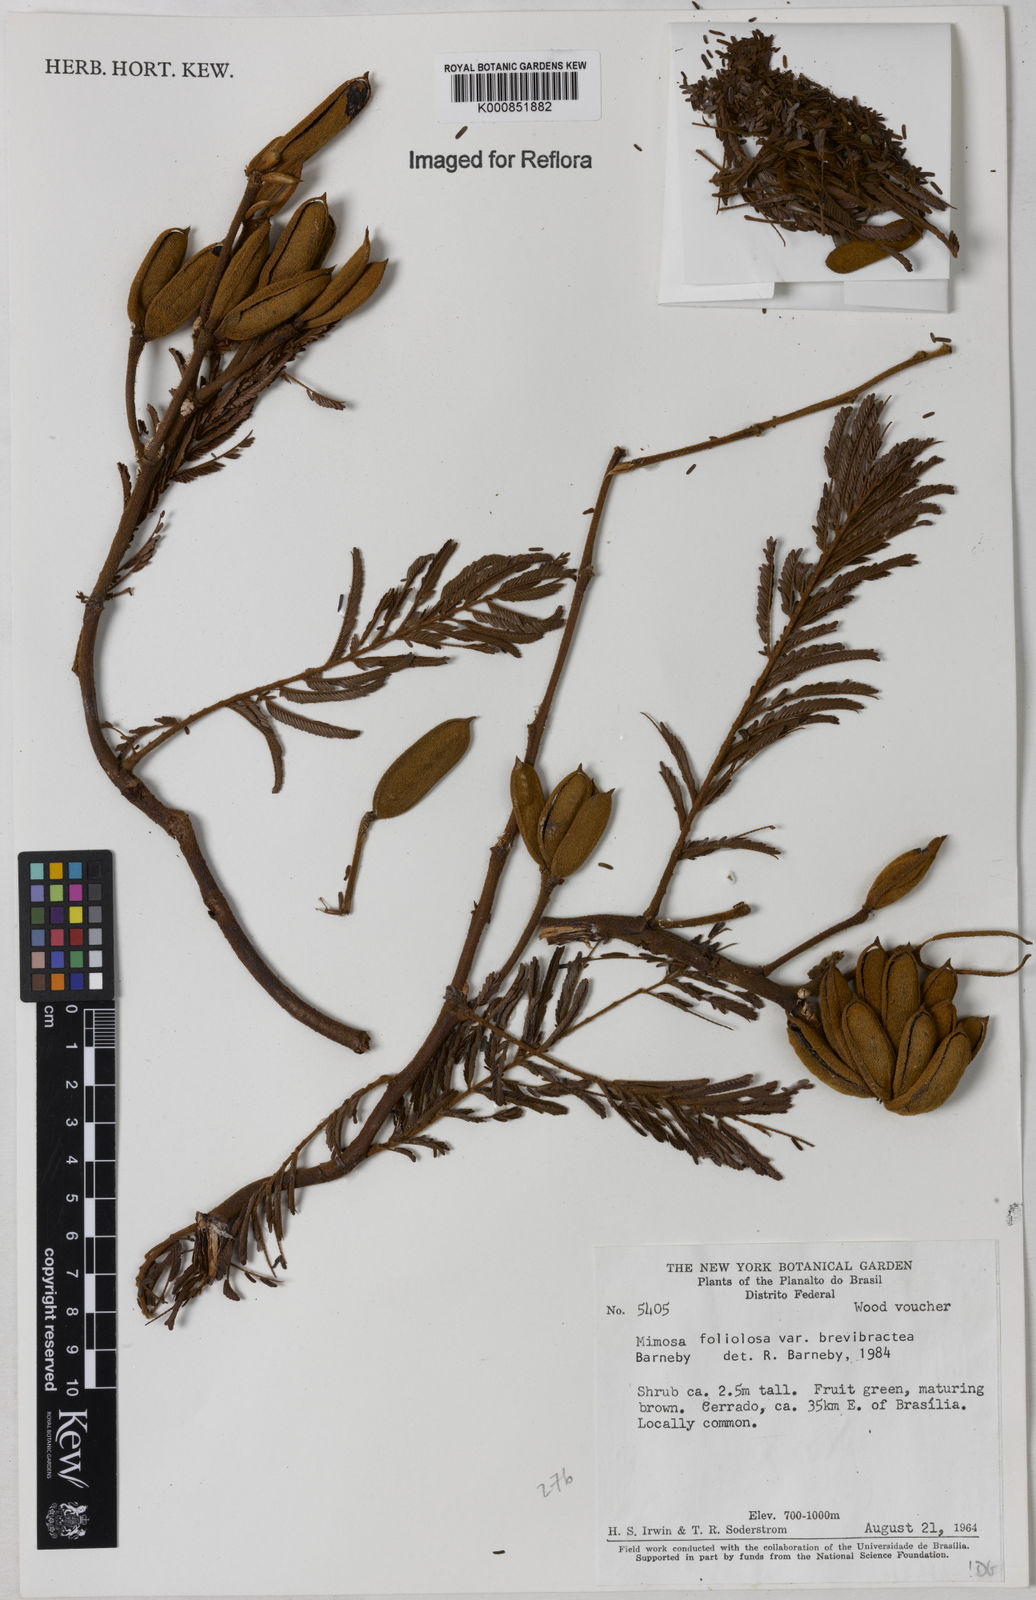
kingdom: Plantae
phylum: Tracheophyta
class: Magnoliopsida
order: Fabales
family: Fabaceae
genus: Mimosa
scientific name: Mimosa foliolosa
